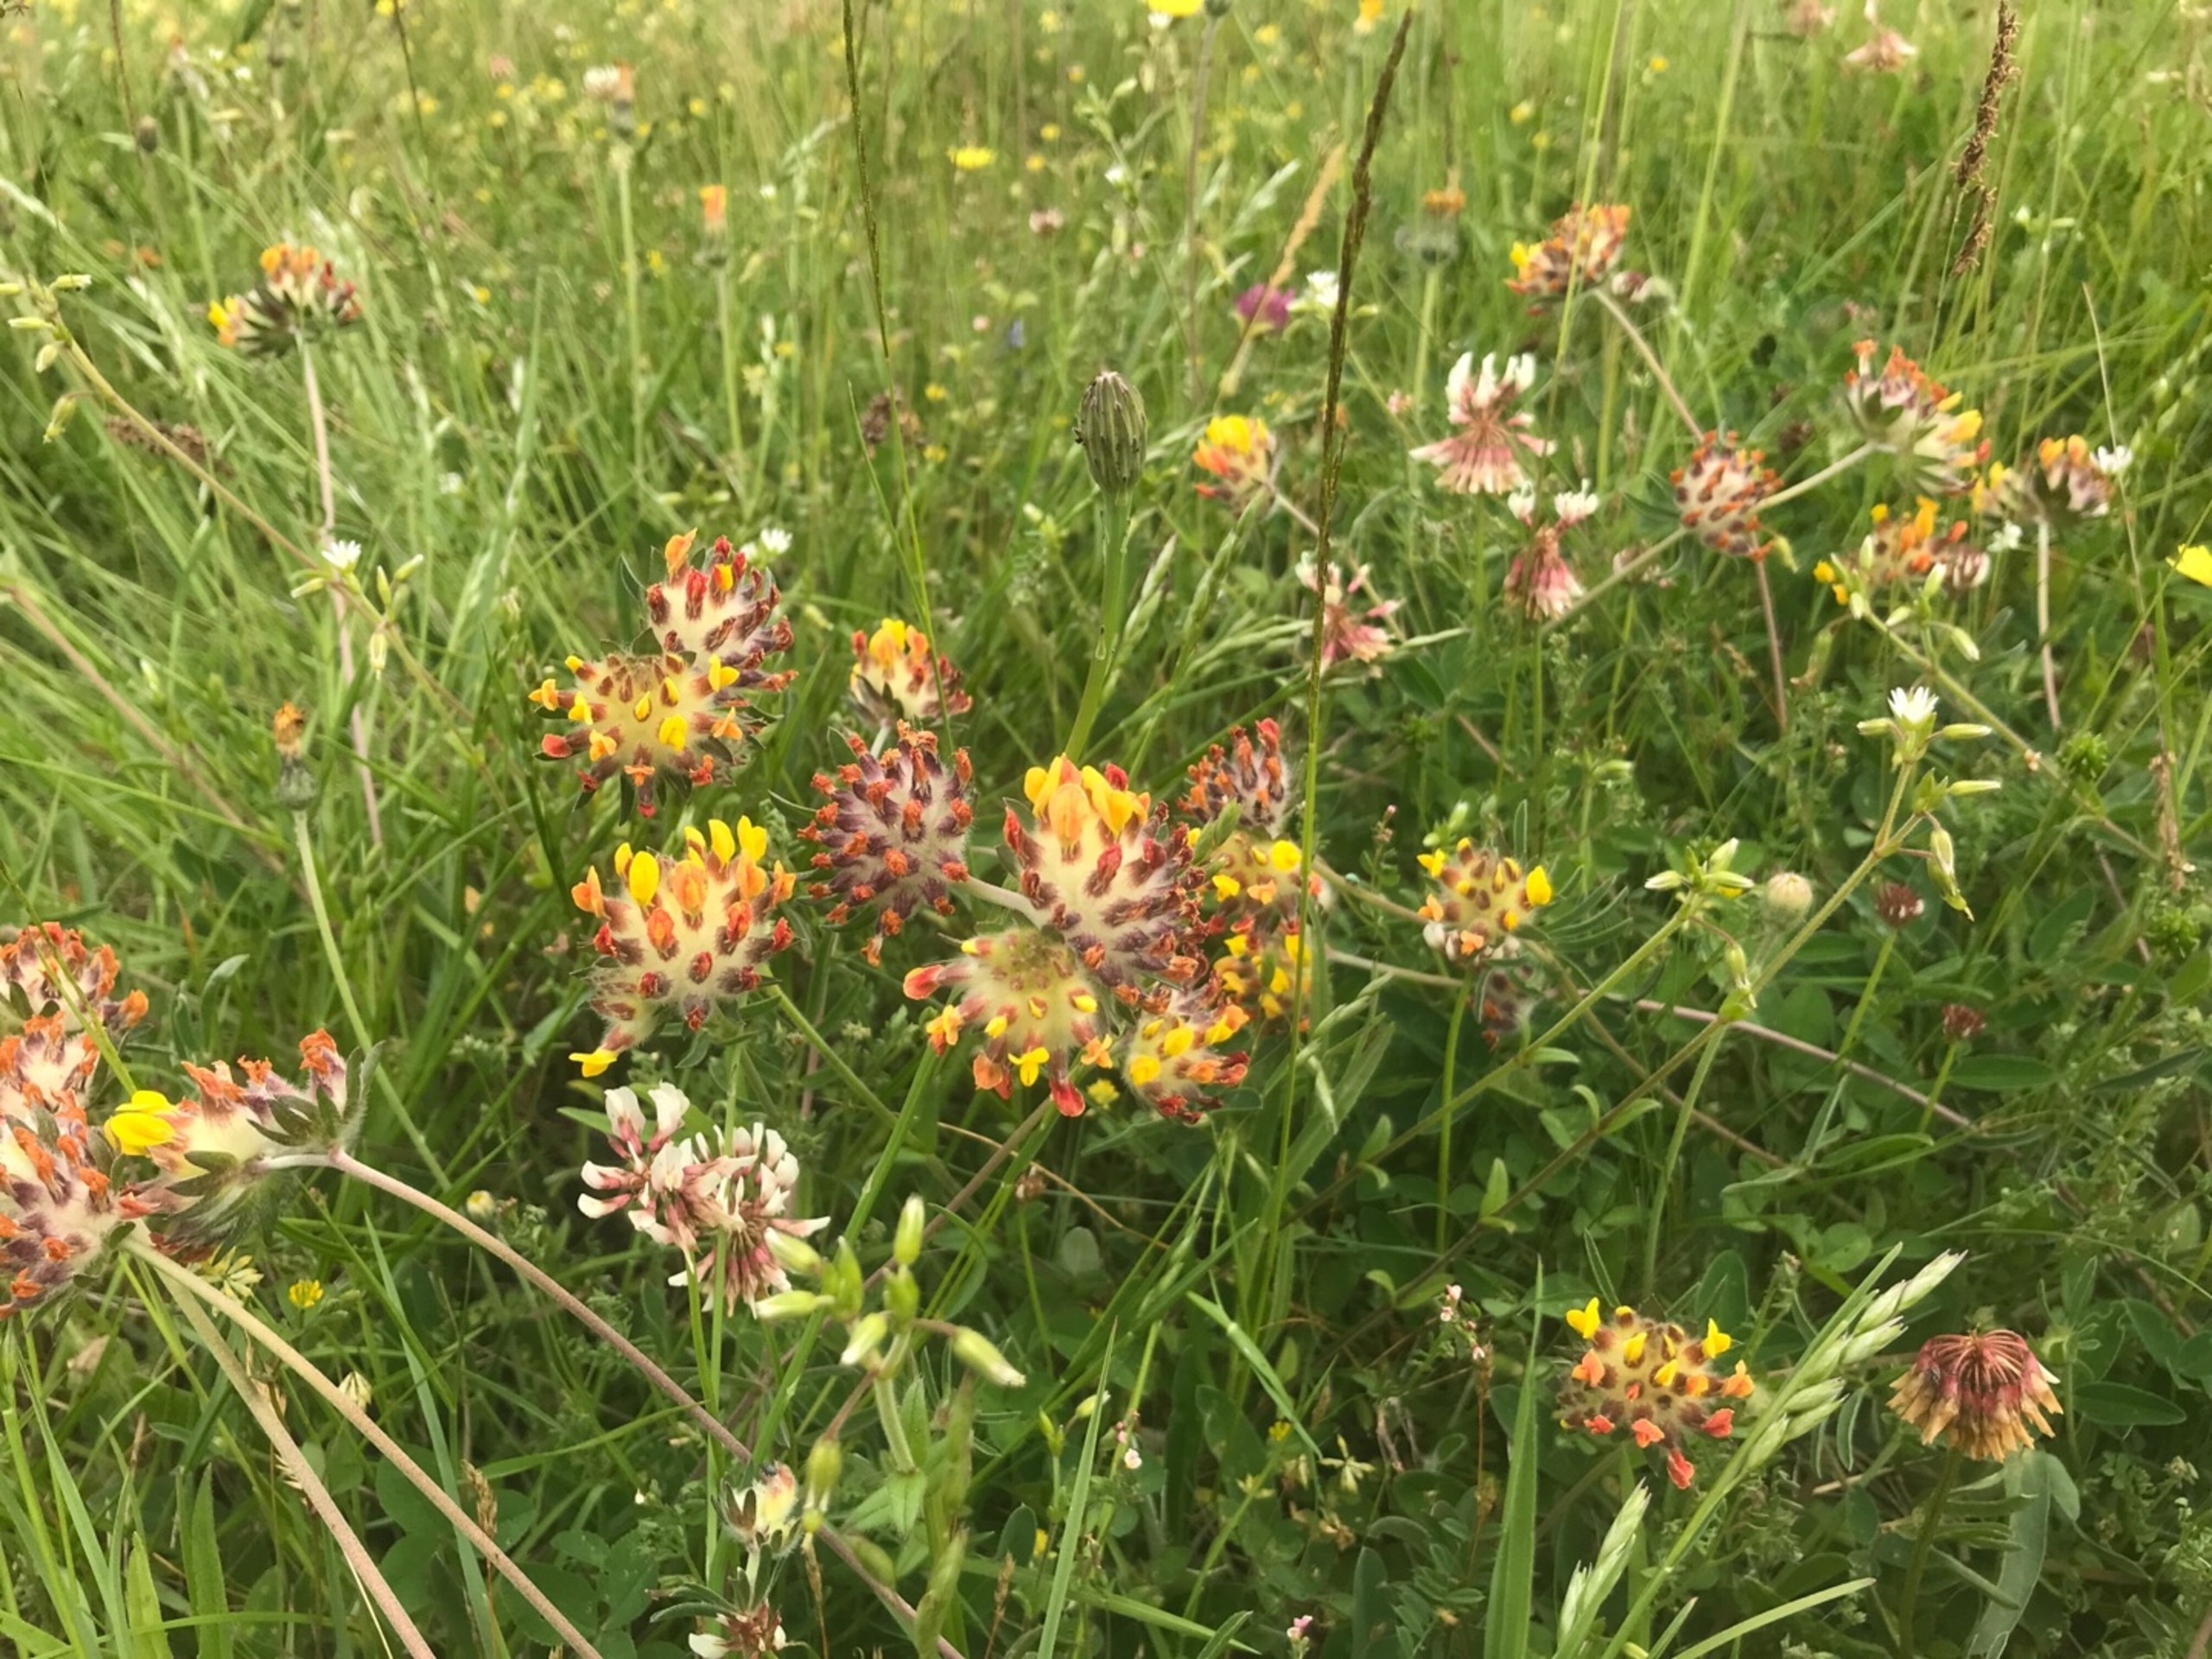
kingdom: Plantae
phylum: Tracheophyta
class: Magnoliopsida
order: Fabales
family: Fabaceae
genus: Anthyllis
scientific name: Anthyllis vulneraria
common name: Rundbælg
